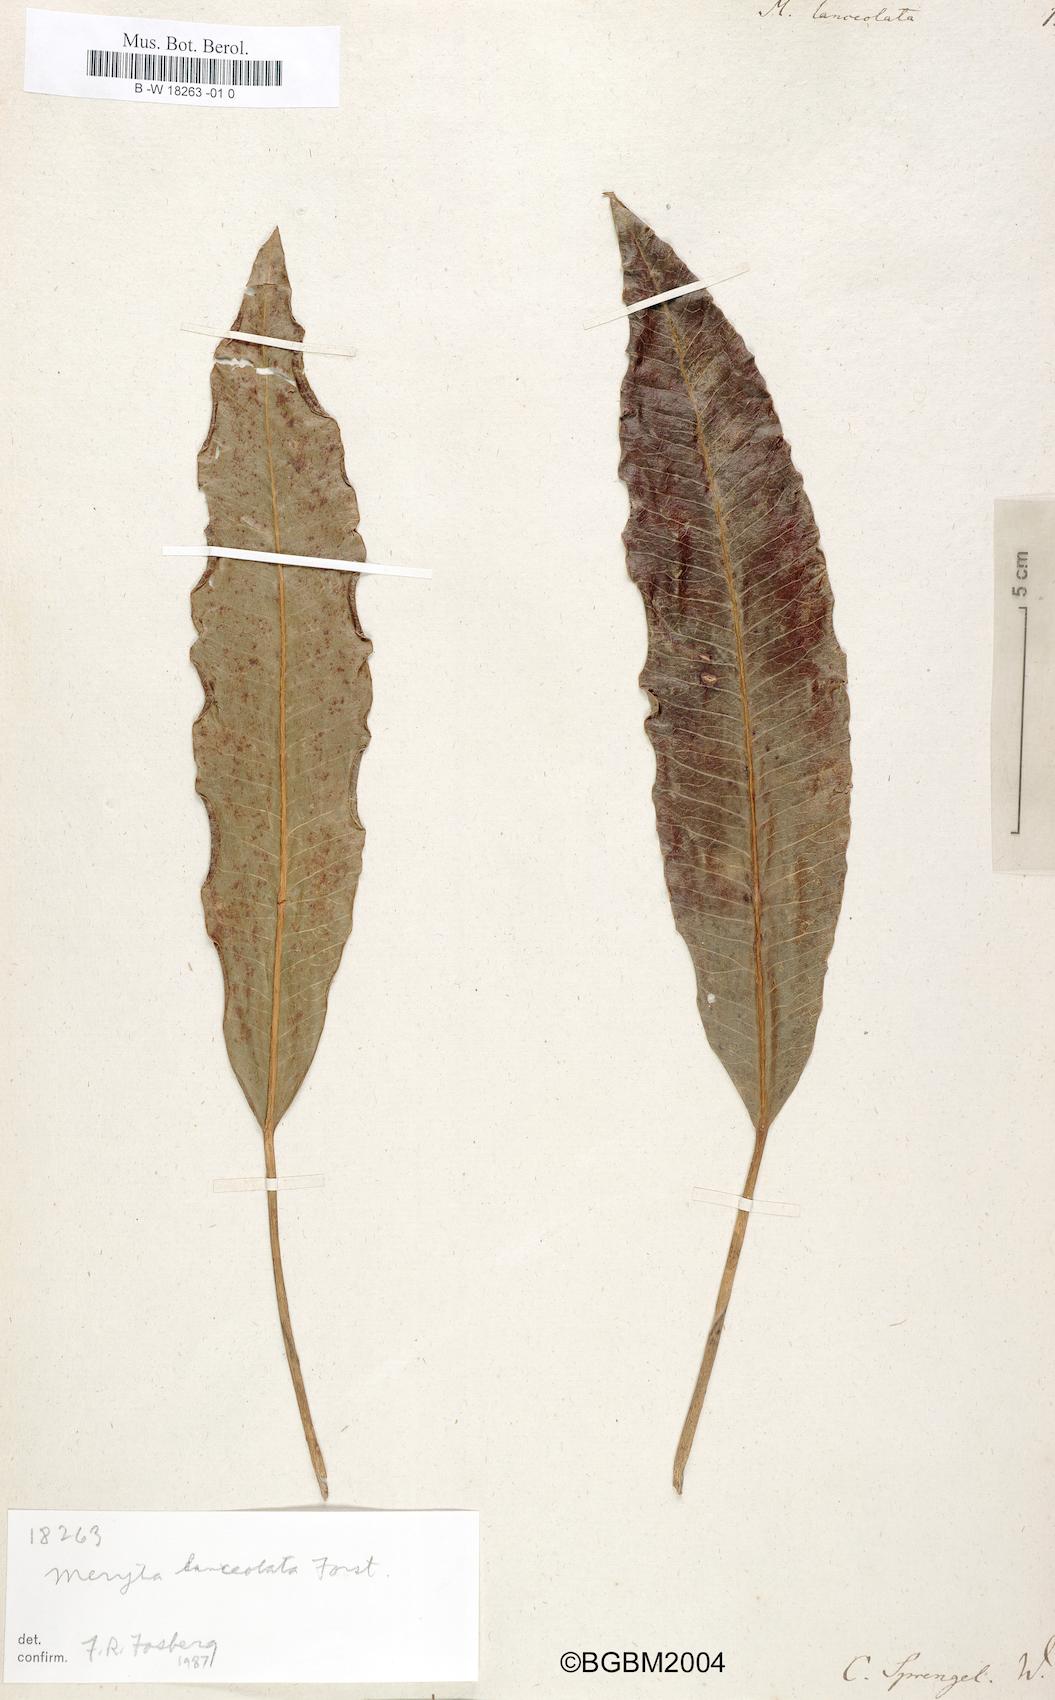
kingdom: Plantae
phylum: Tracheophyta
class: Magnoliopsida
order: Apiales
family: Araliaceae
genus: Meryta
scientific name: Meryta lanceolata
